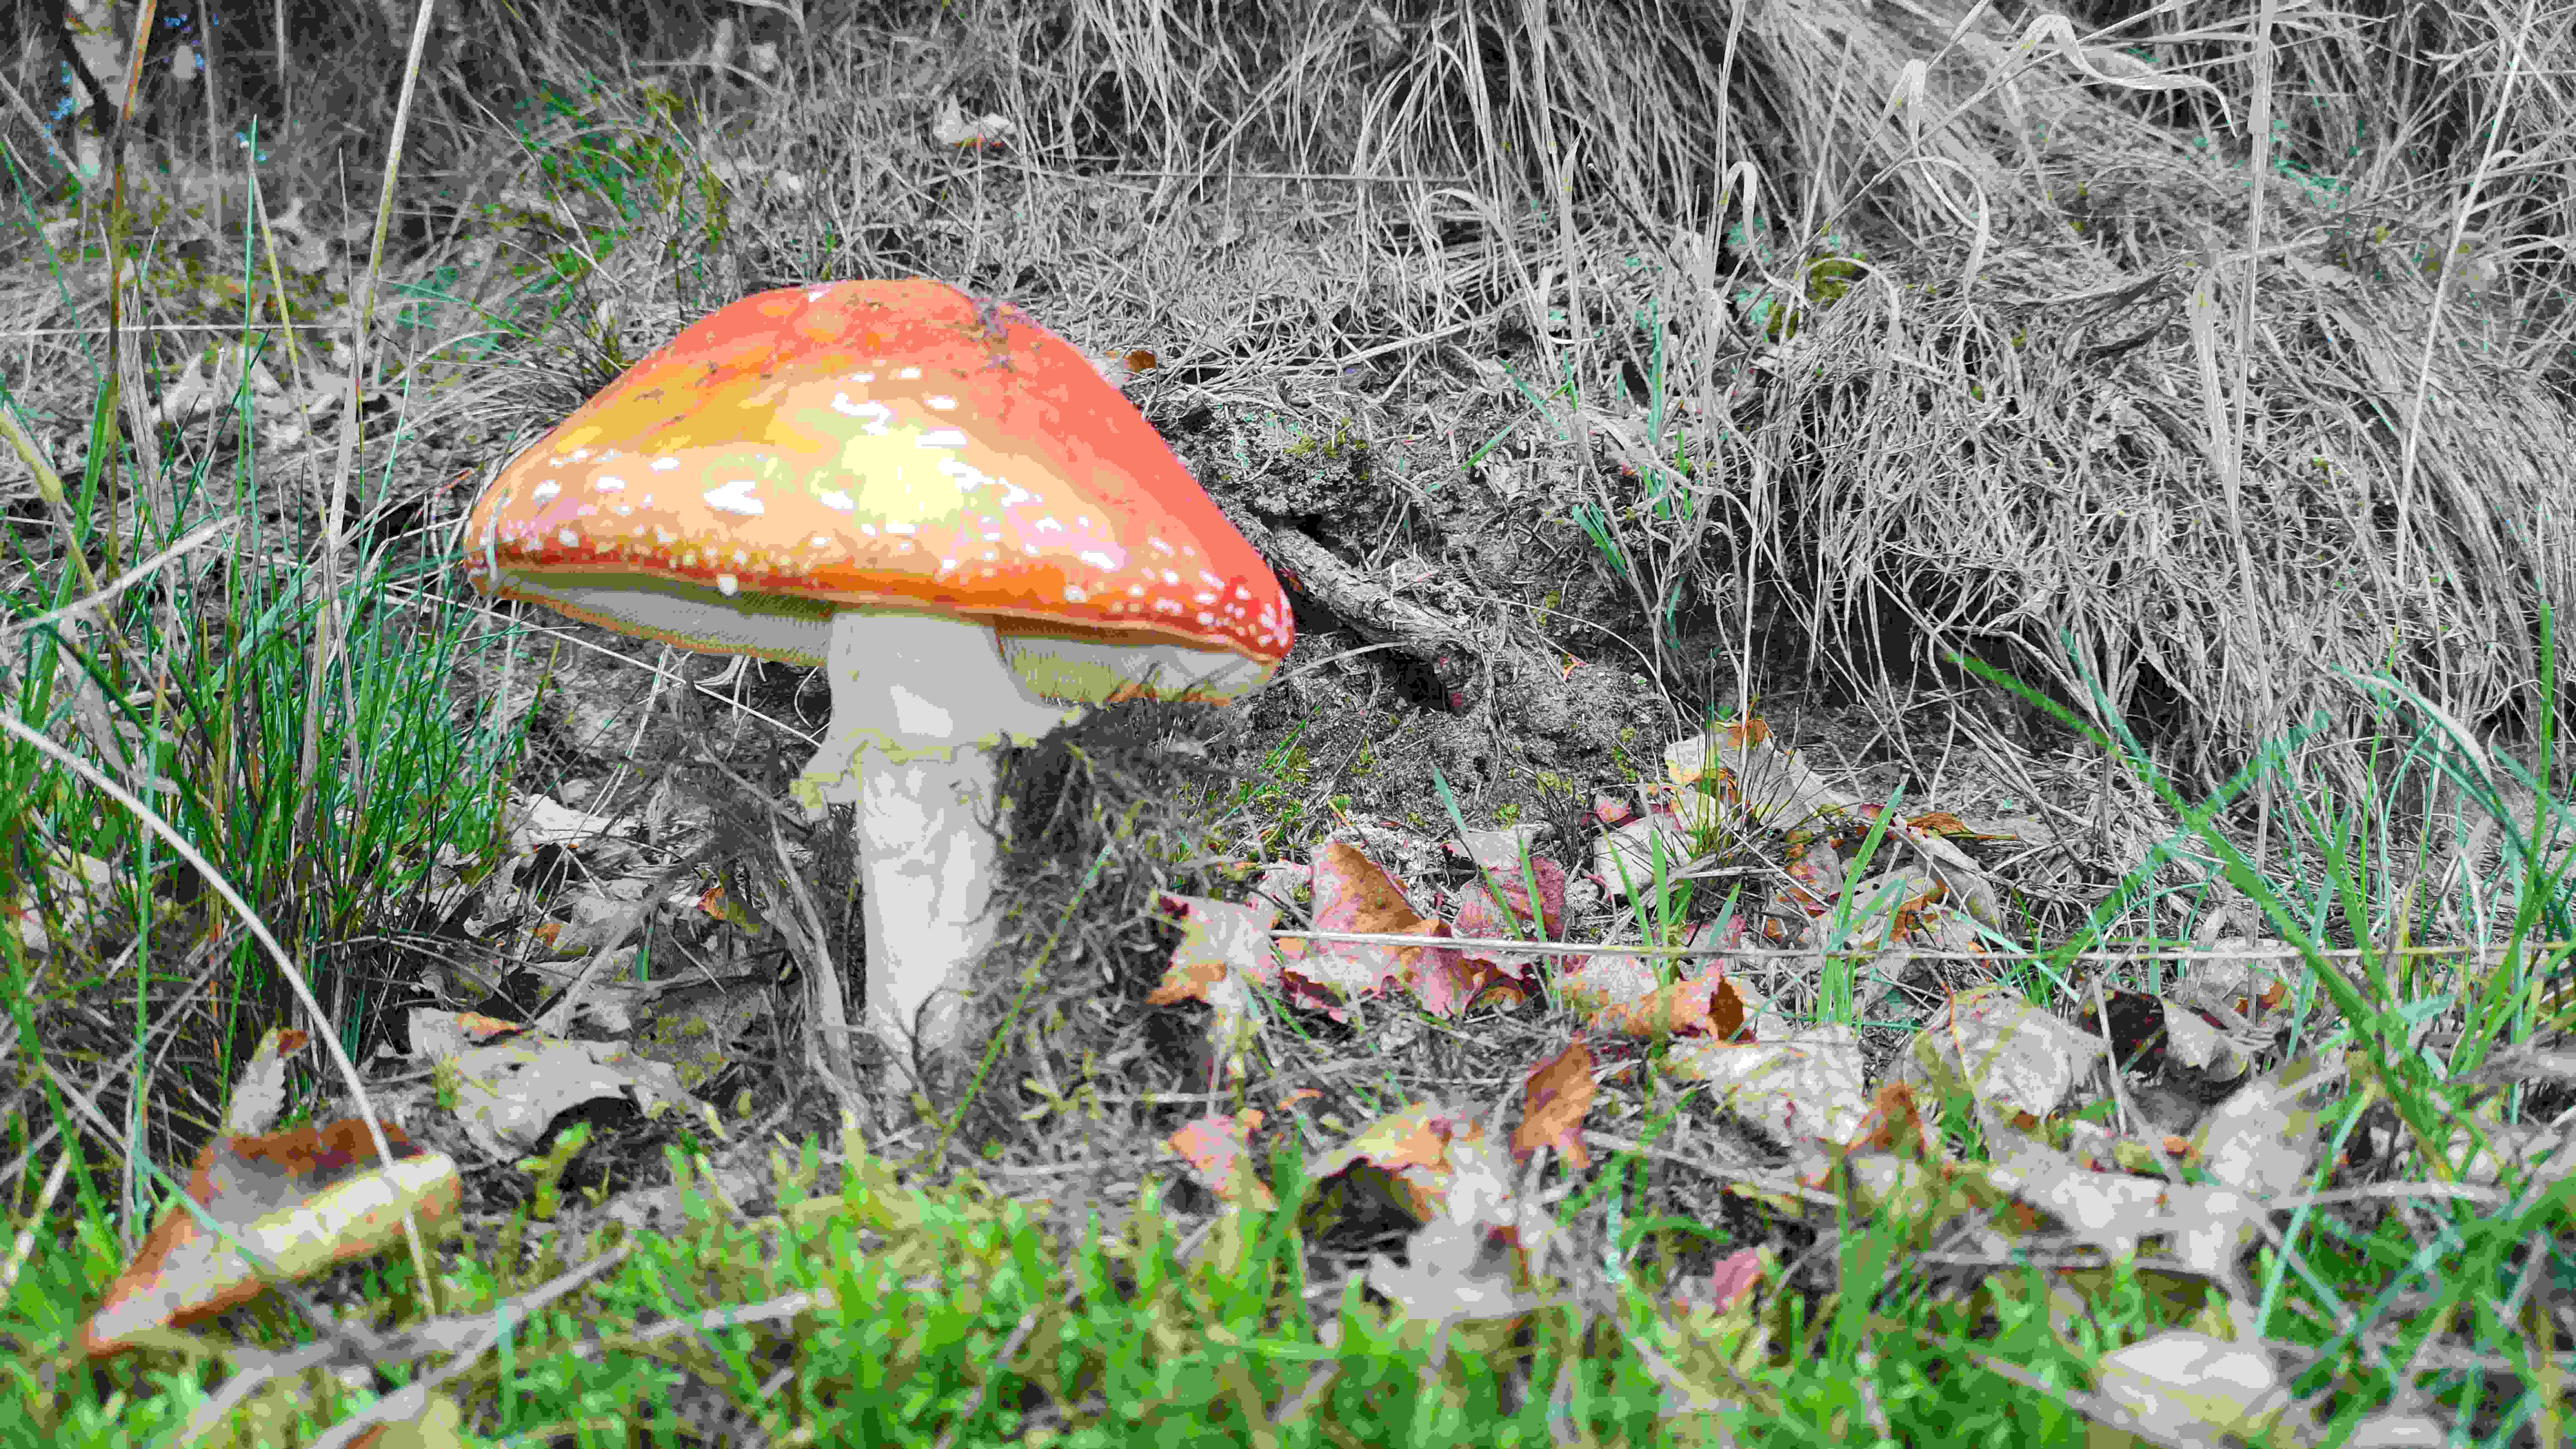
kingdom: Fungi
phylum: Basidiomycota
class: Agaricomycetes
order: Agaricales
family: Amanitaceae
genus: Amanita
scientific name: Amanita muscaria
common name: rød fluesvamp
